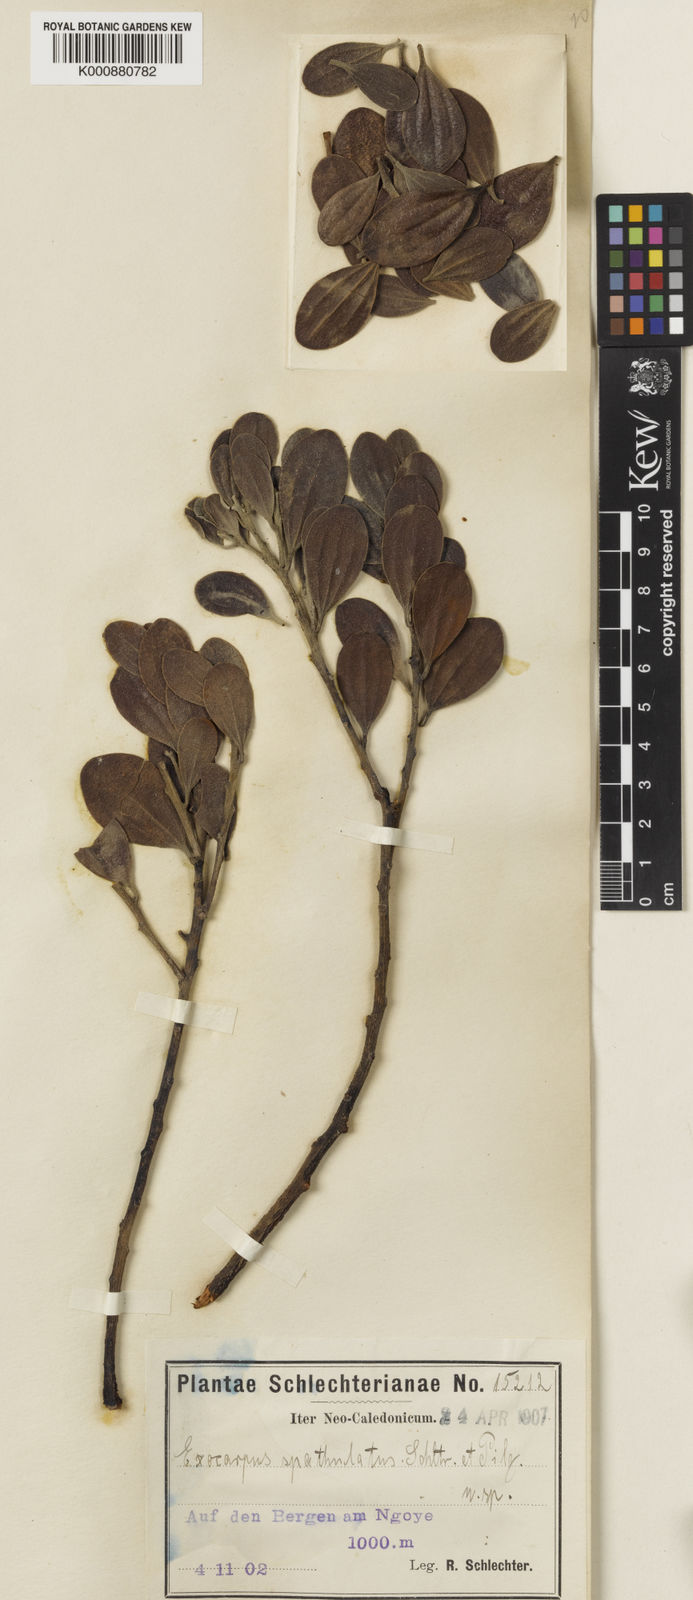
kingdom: Plantae
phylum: Tracheophyta
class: Magnoliopsida
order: Santalales
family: Santalaceae
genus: Exocarpos
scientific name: Exocarpos spathulatus
